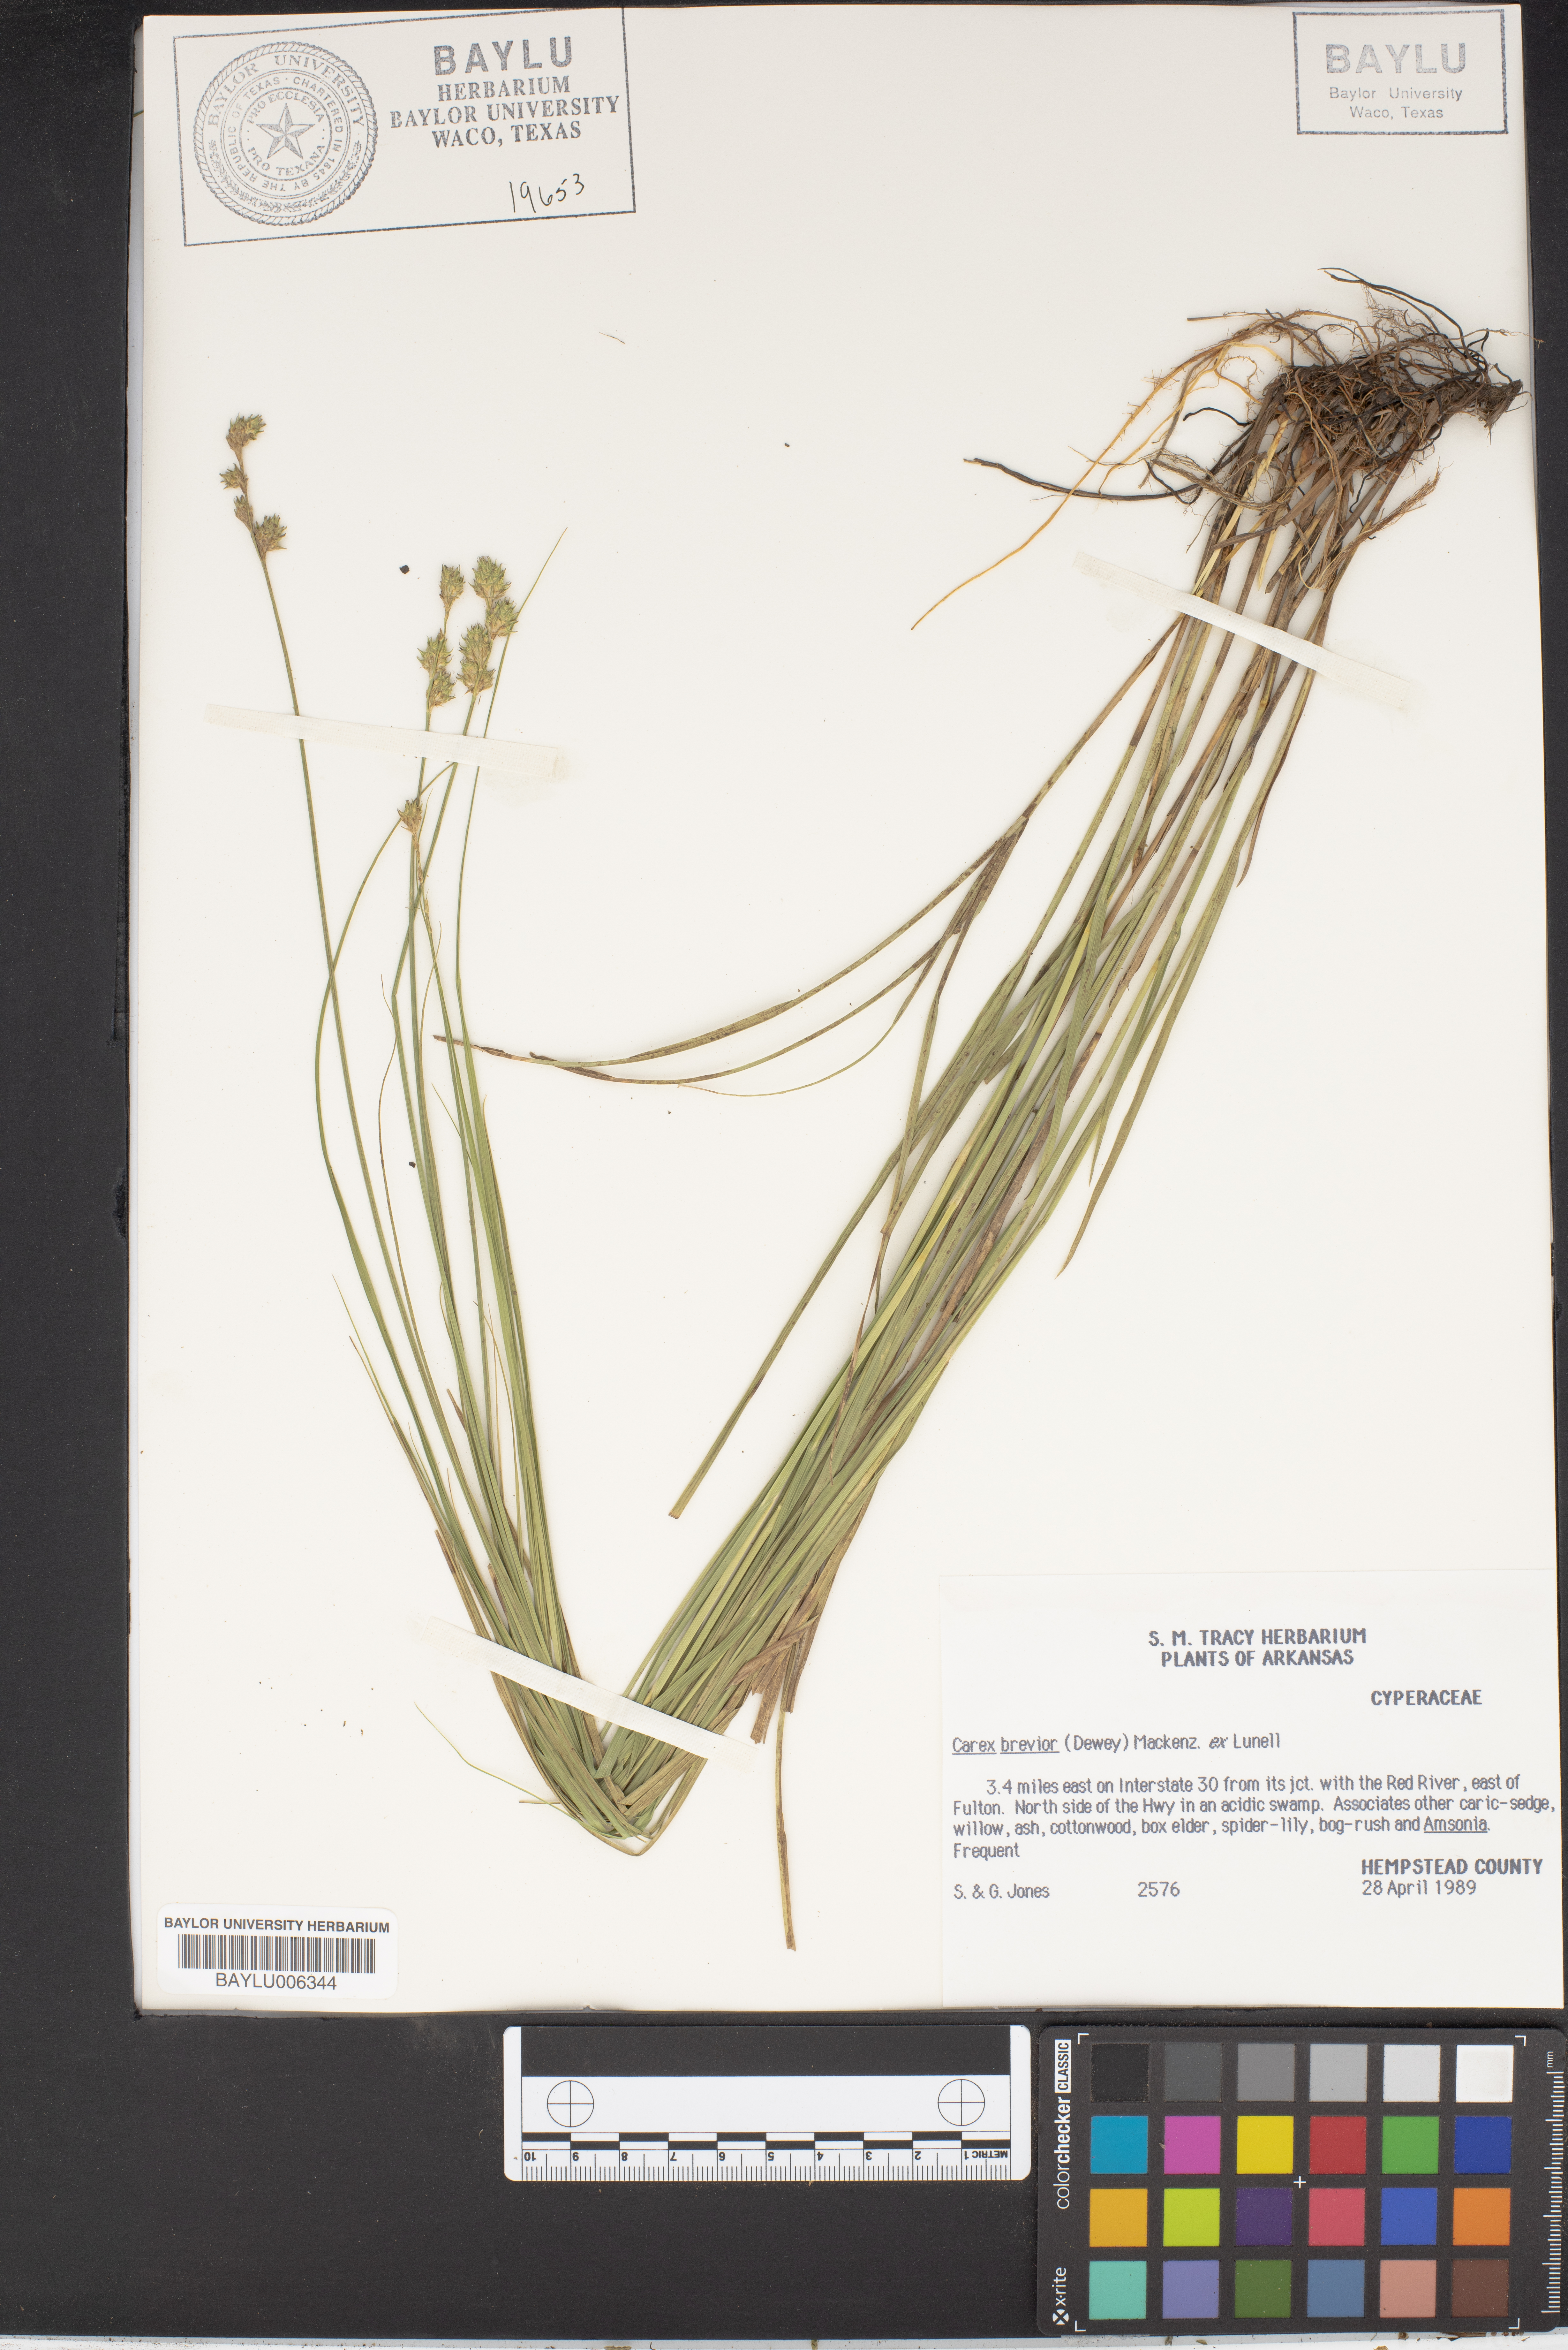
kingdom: Plantae
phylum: Tracheophyta
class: Liliopsida
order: Poales
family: Cyperaceae
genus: Carex
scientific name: Carex brevior
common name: Brevior sedge
